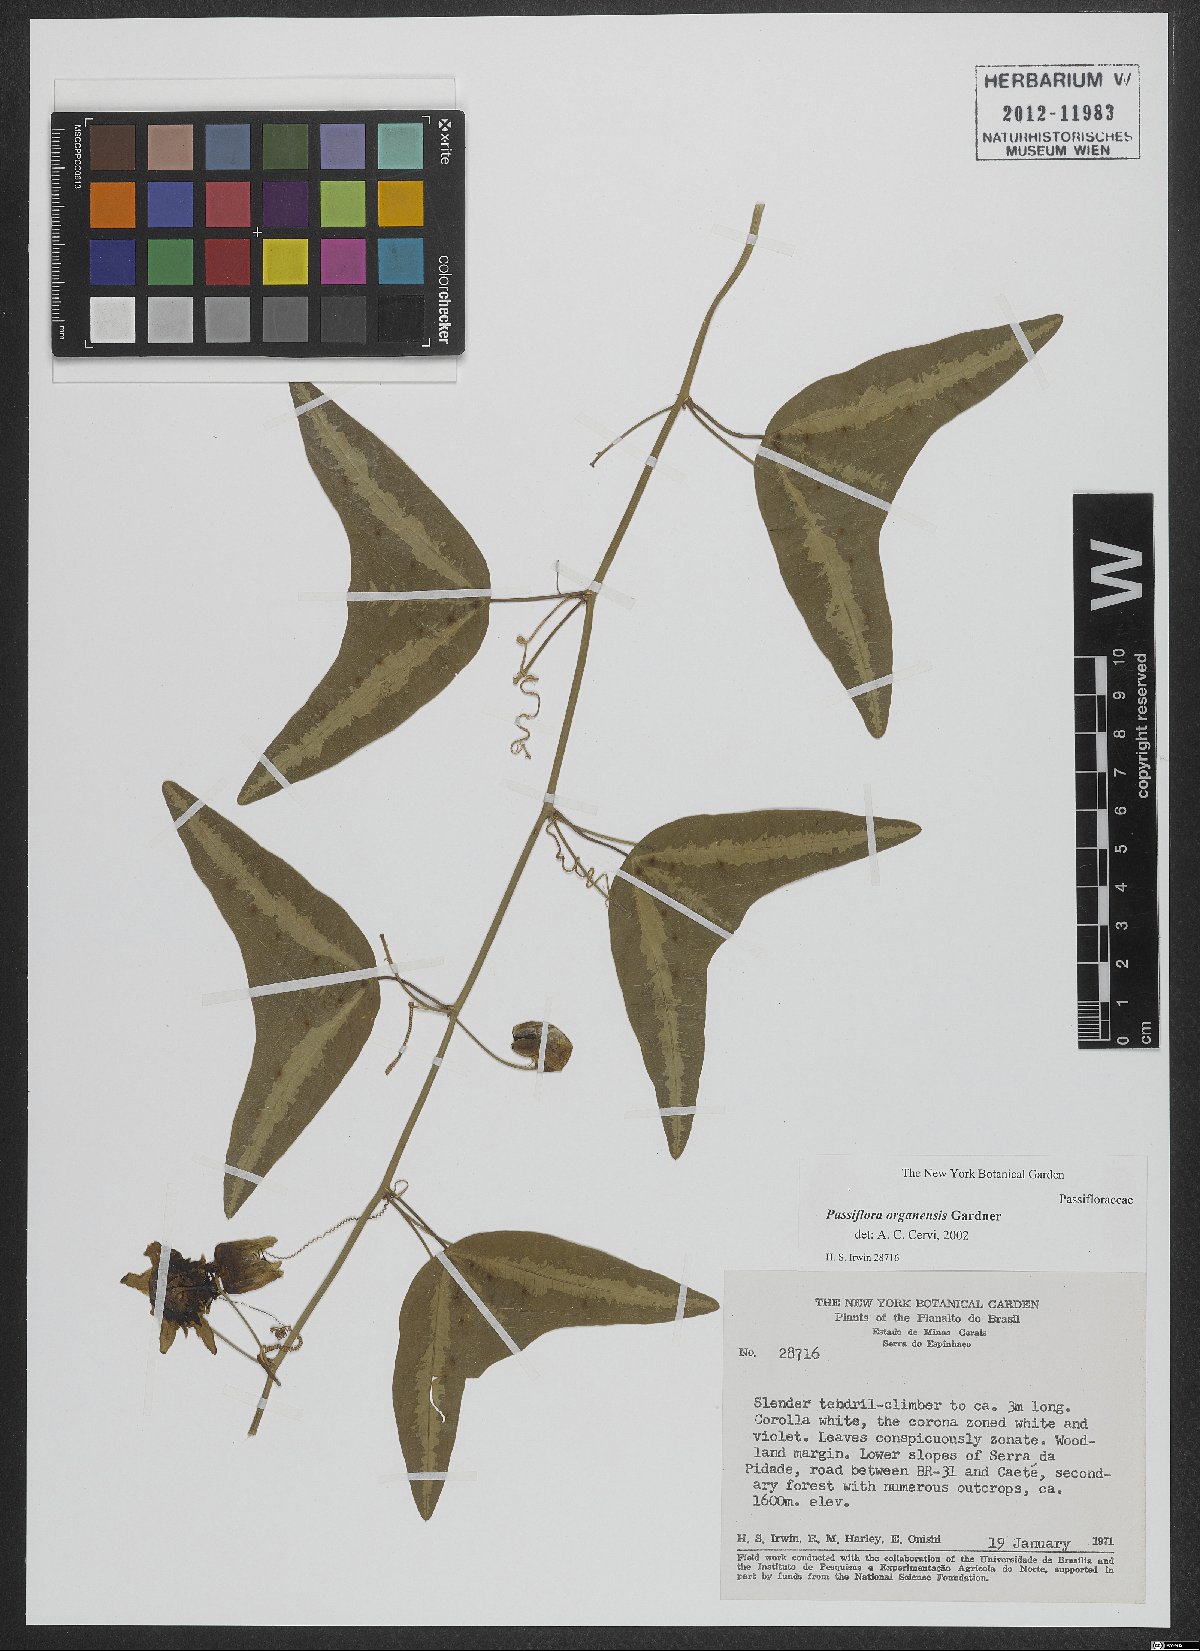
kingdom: Plantae
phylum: Tracheophyta
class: Magnoliopsida
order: Malpighiales
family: Passifloraceae
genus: Passiflora
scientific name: Passiflora porophylla
